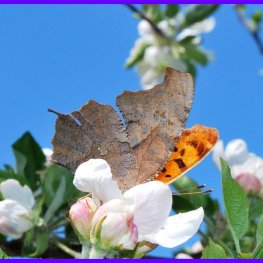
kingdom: Animalia
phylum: Arthropoda
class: Insecta
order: Lepidoptera
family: Nymphalidae
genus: Polygonia
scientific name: Polygonia interrogationis
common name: Question Mark
